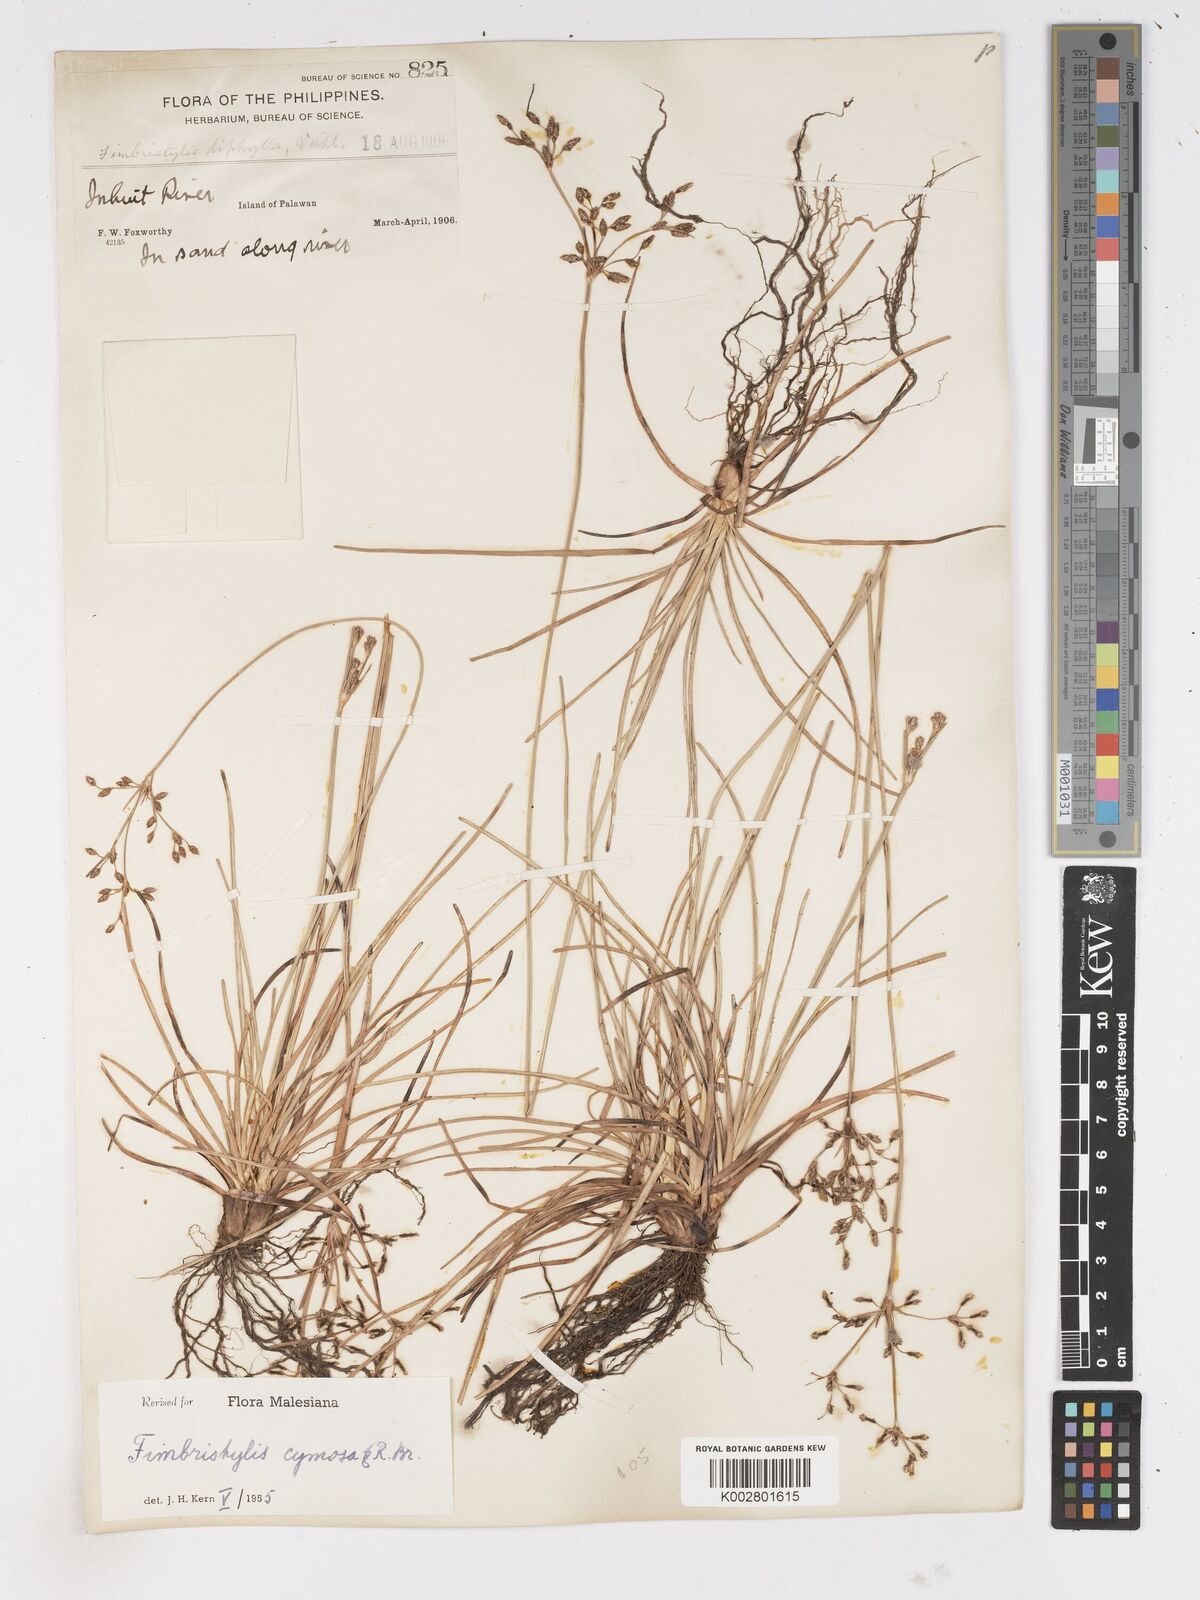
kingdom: Plantae
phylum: Tracheophyta
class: Liliopsida
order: Poales
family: Cyperaceae
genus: Fimbristylis
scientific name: Fimbristylis cymosa
